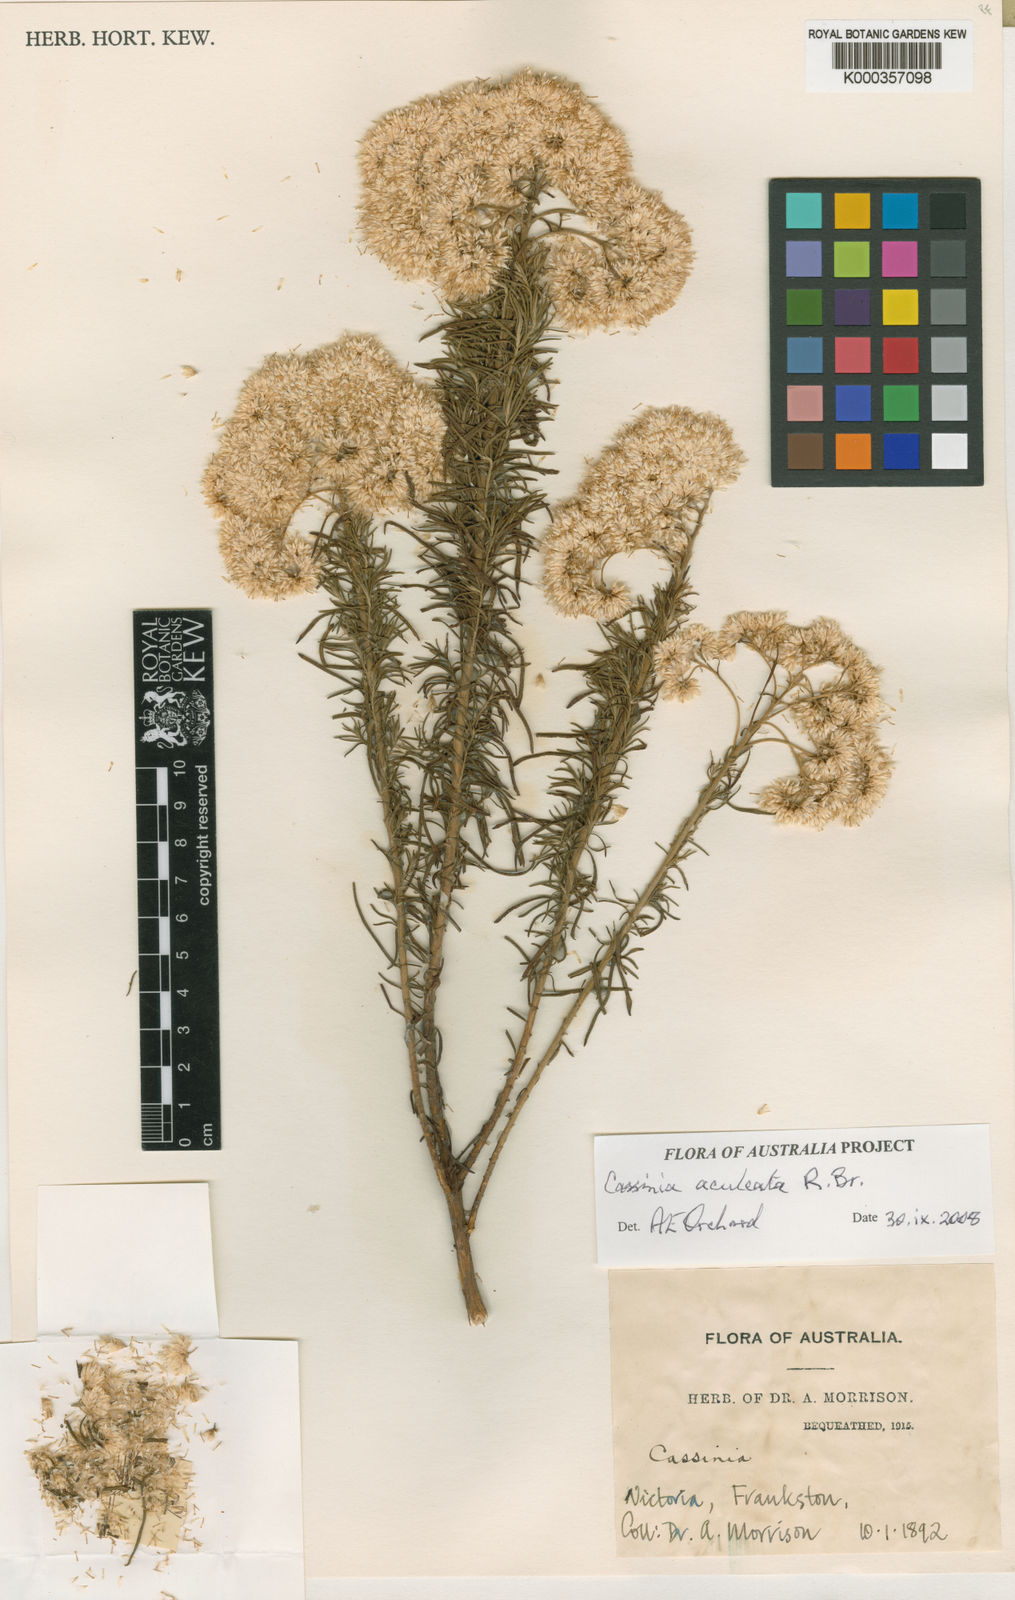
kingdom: Plantae
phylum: Tracheophyta
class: Magnoliopsida
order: Asterales
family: Asteraceae
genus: Cassinia
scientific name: Cassinia aculeata
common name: Australian tauhinu
